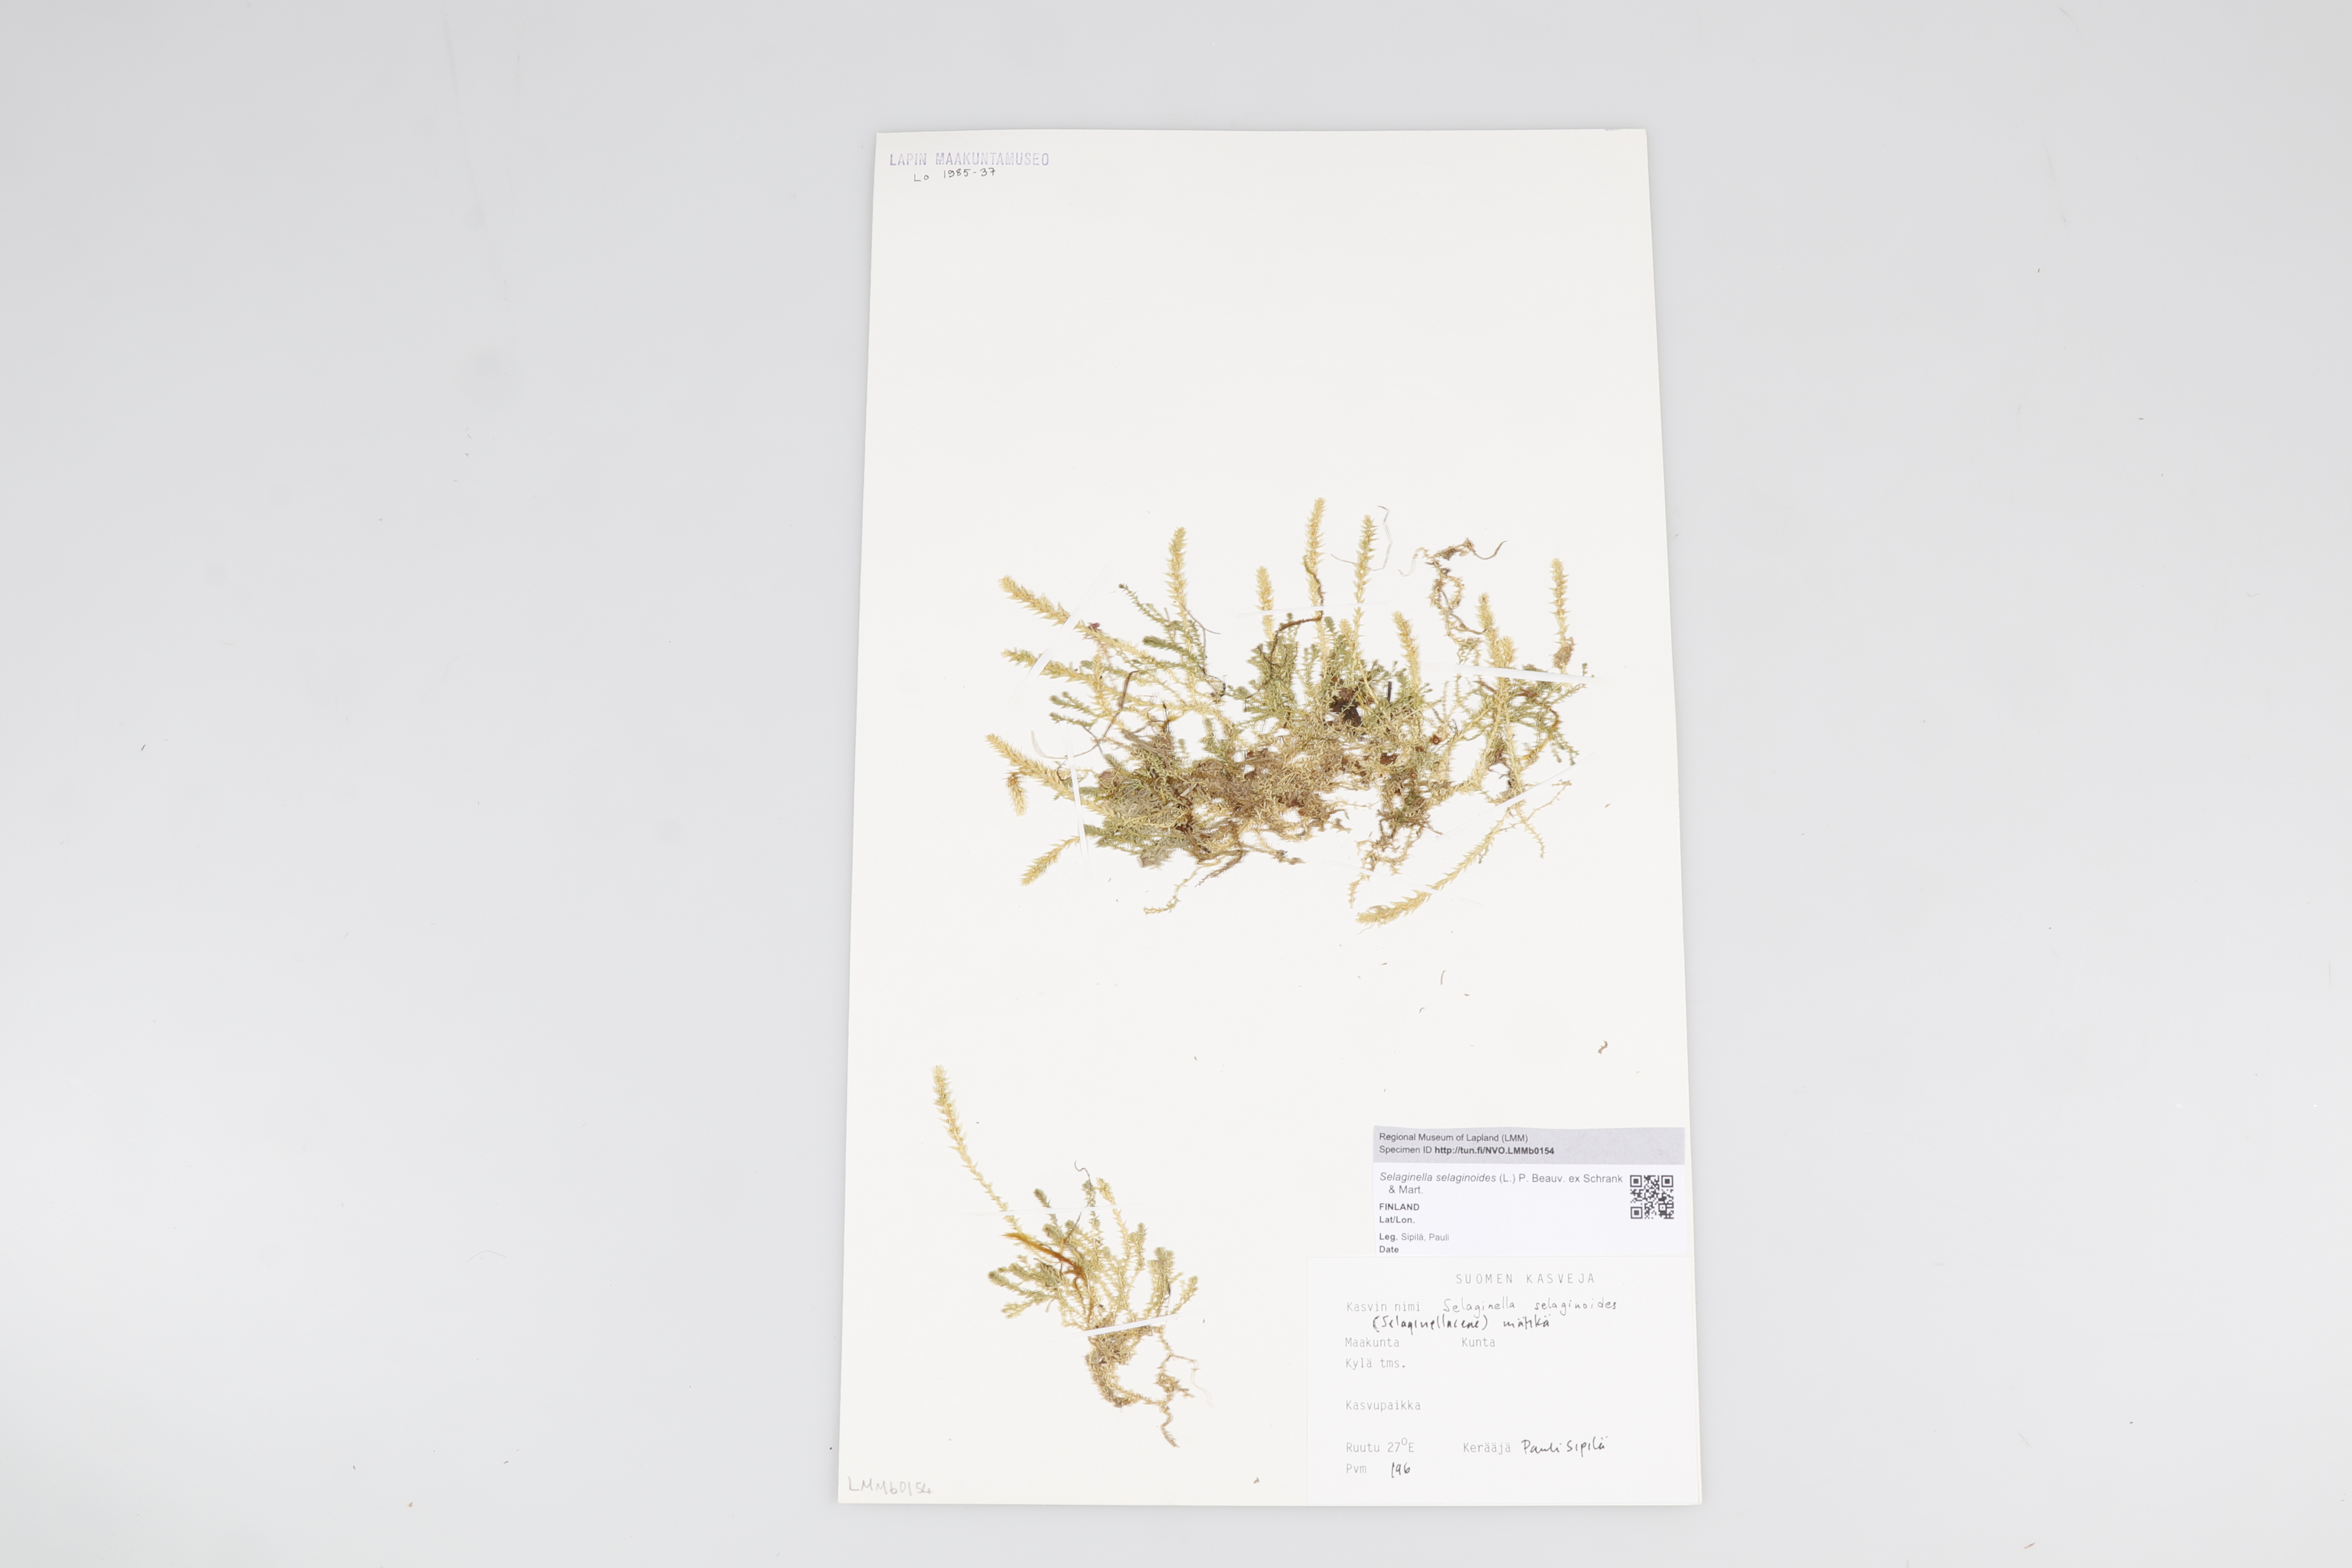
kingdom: Plantae
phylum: Tracheophyta
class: Lycopodiopsida
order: Selaginellales
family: Selaginellaceae
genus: Selaginella
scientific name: Selaginella selaginoides
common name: Prickly mountain-moss
